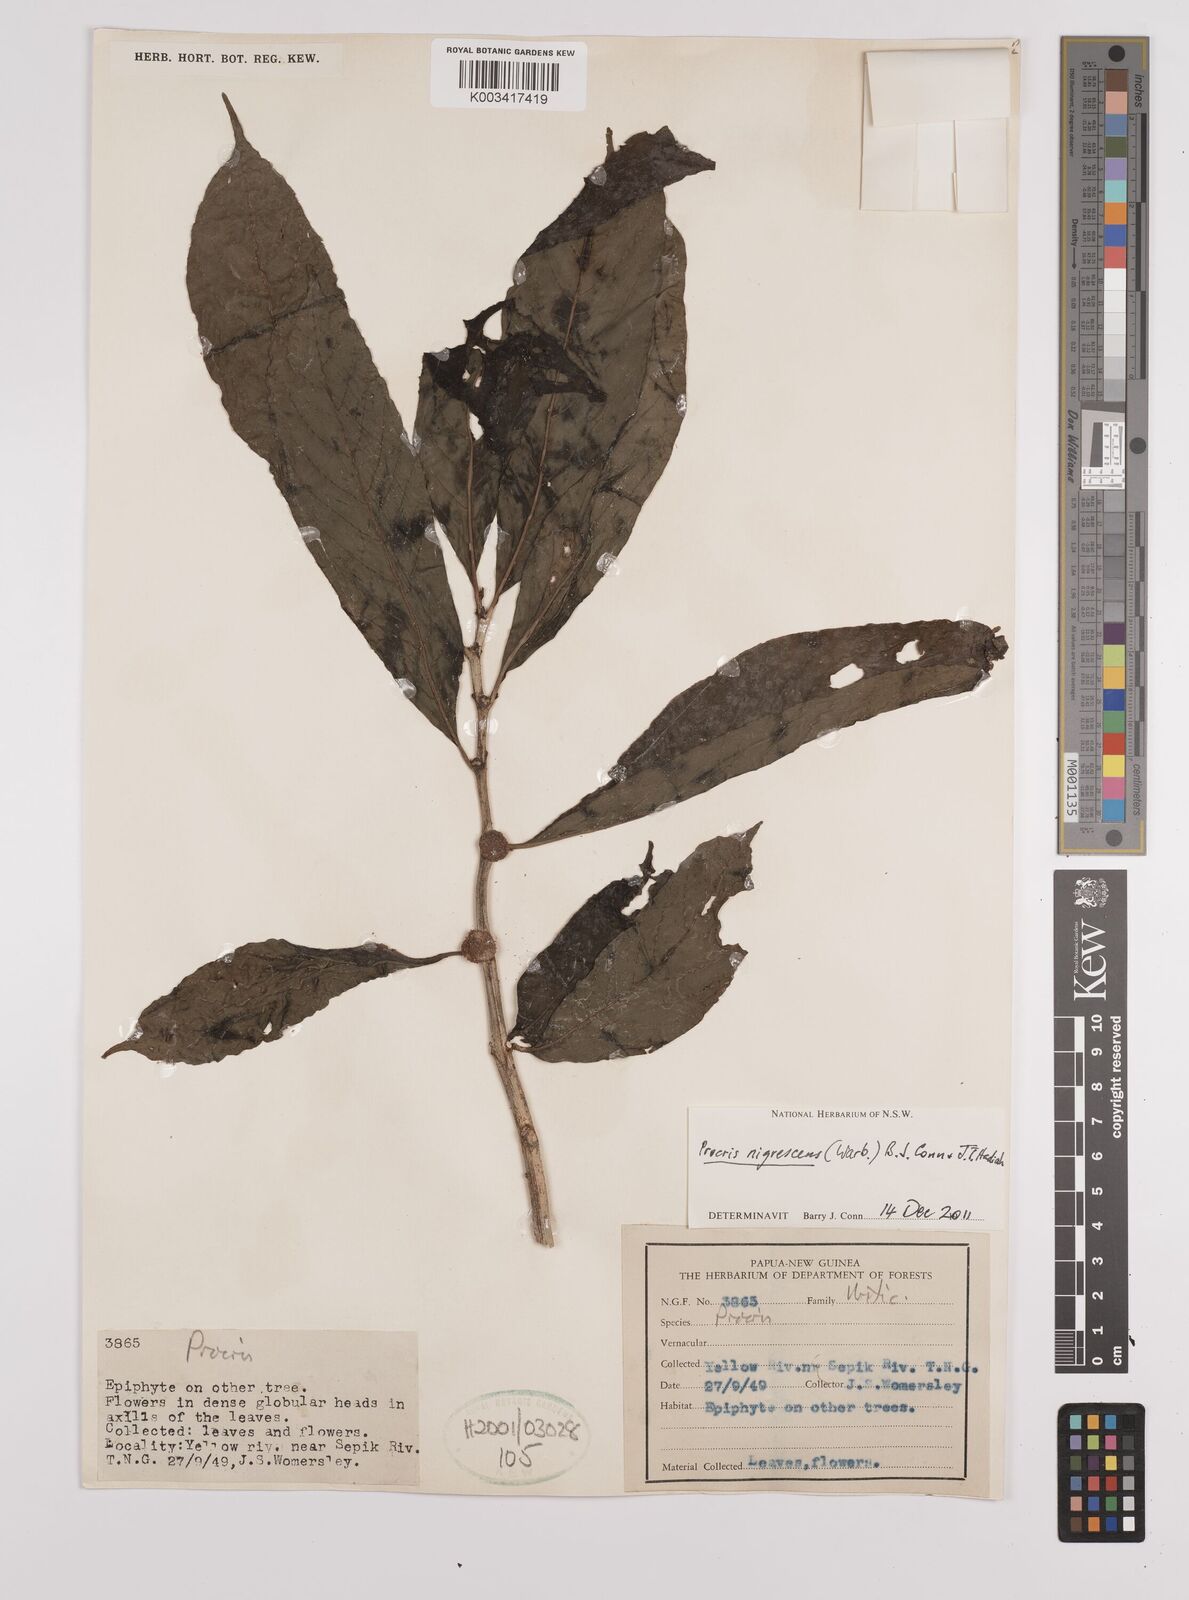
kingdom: Plantae
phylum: Tracheophyta
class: Magnoliopsida
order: Rosales
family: Urticaceae
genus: Procris
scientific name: Procris
